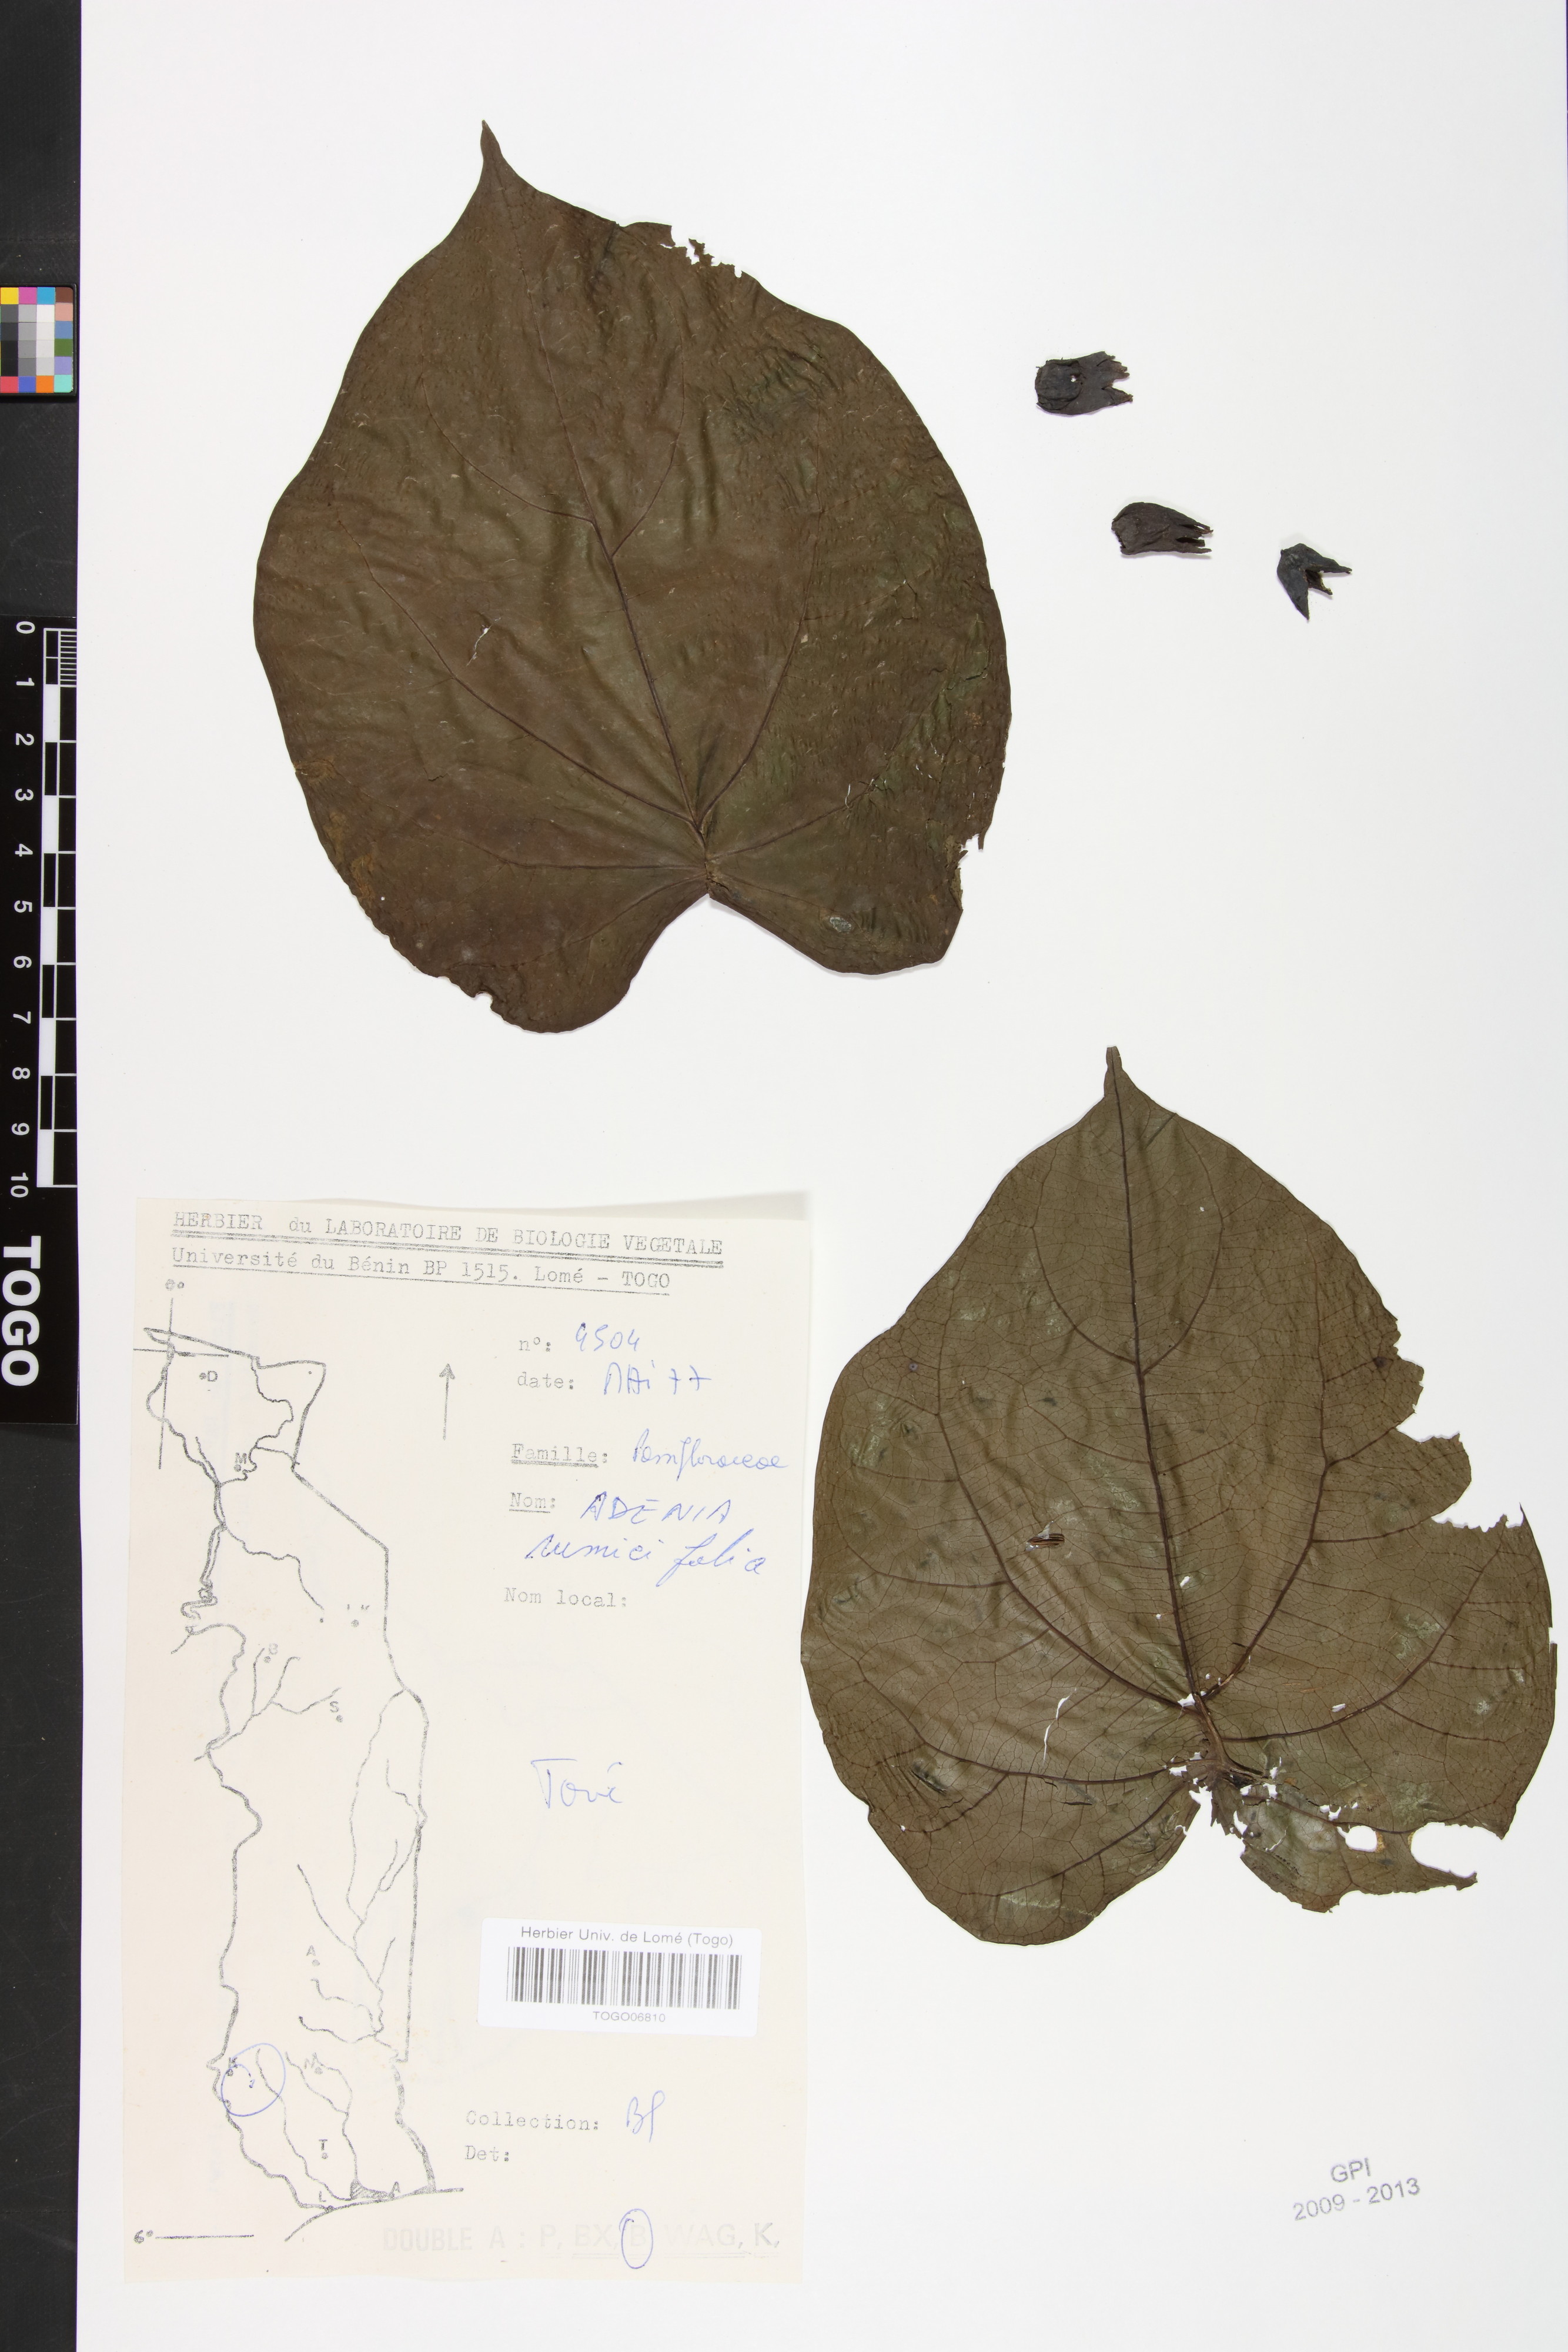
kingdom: Plantae
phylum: Tracheophyta
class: Magnoliopsida
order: Malpighiales
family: Passifloraceae
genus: Adenia
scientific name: Adenia lobata
